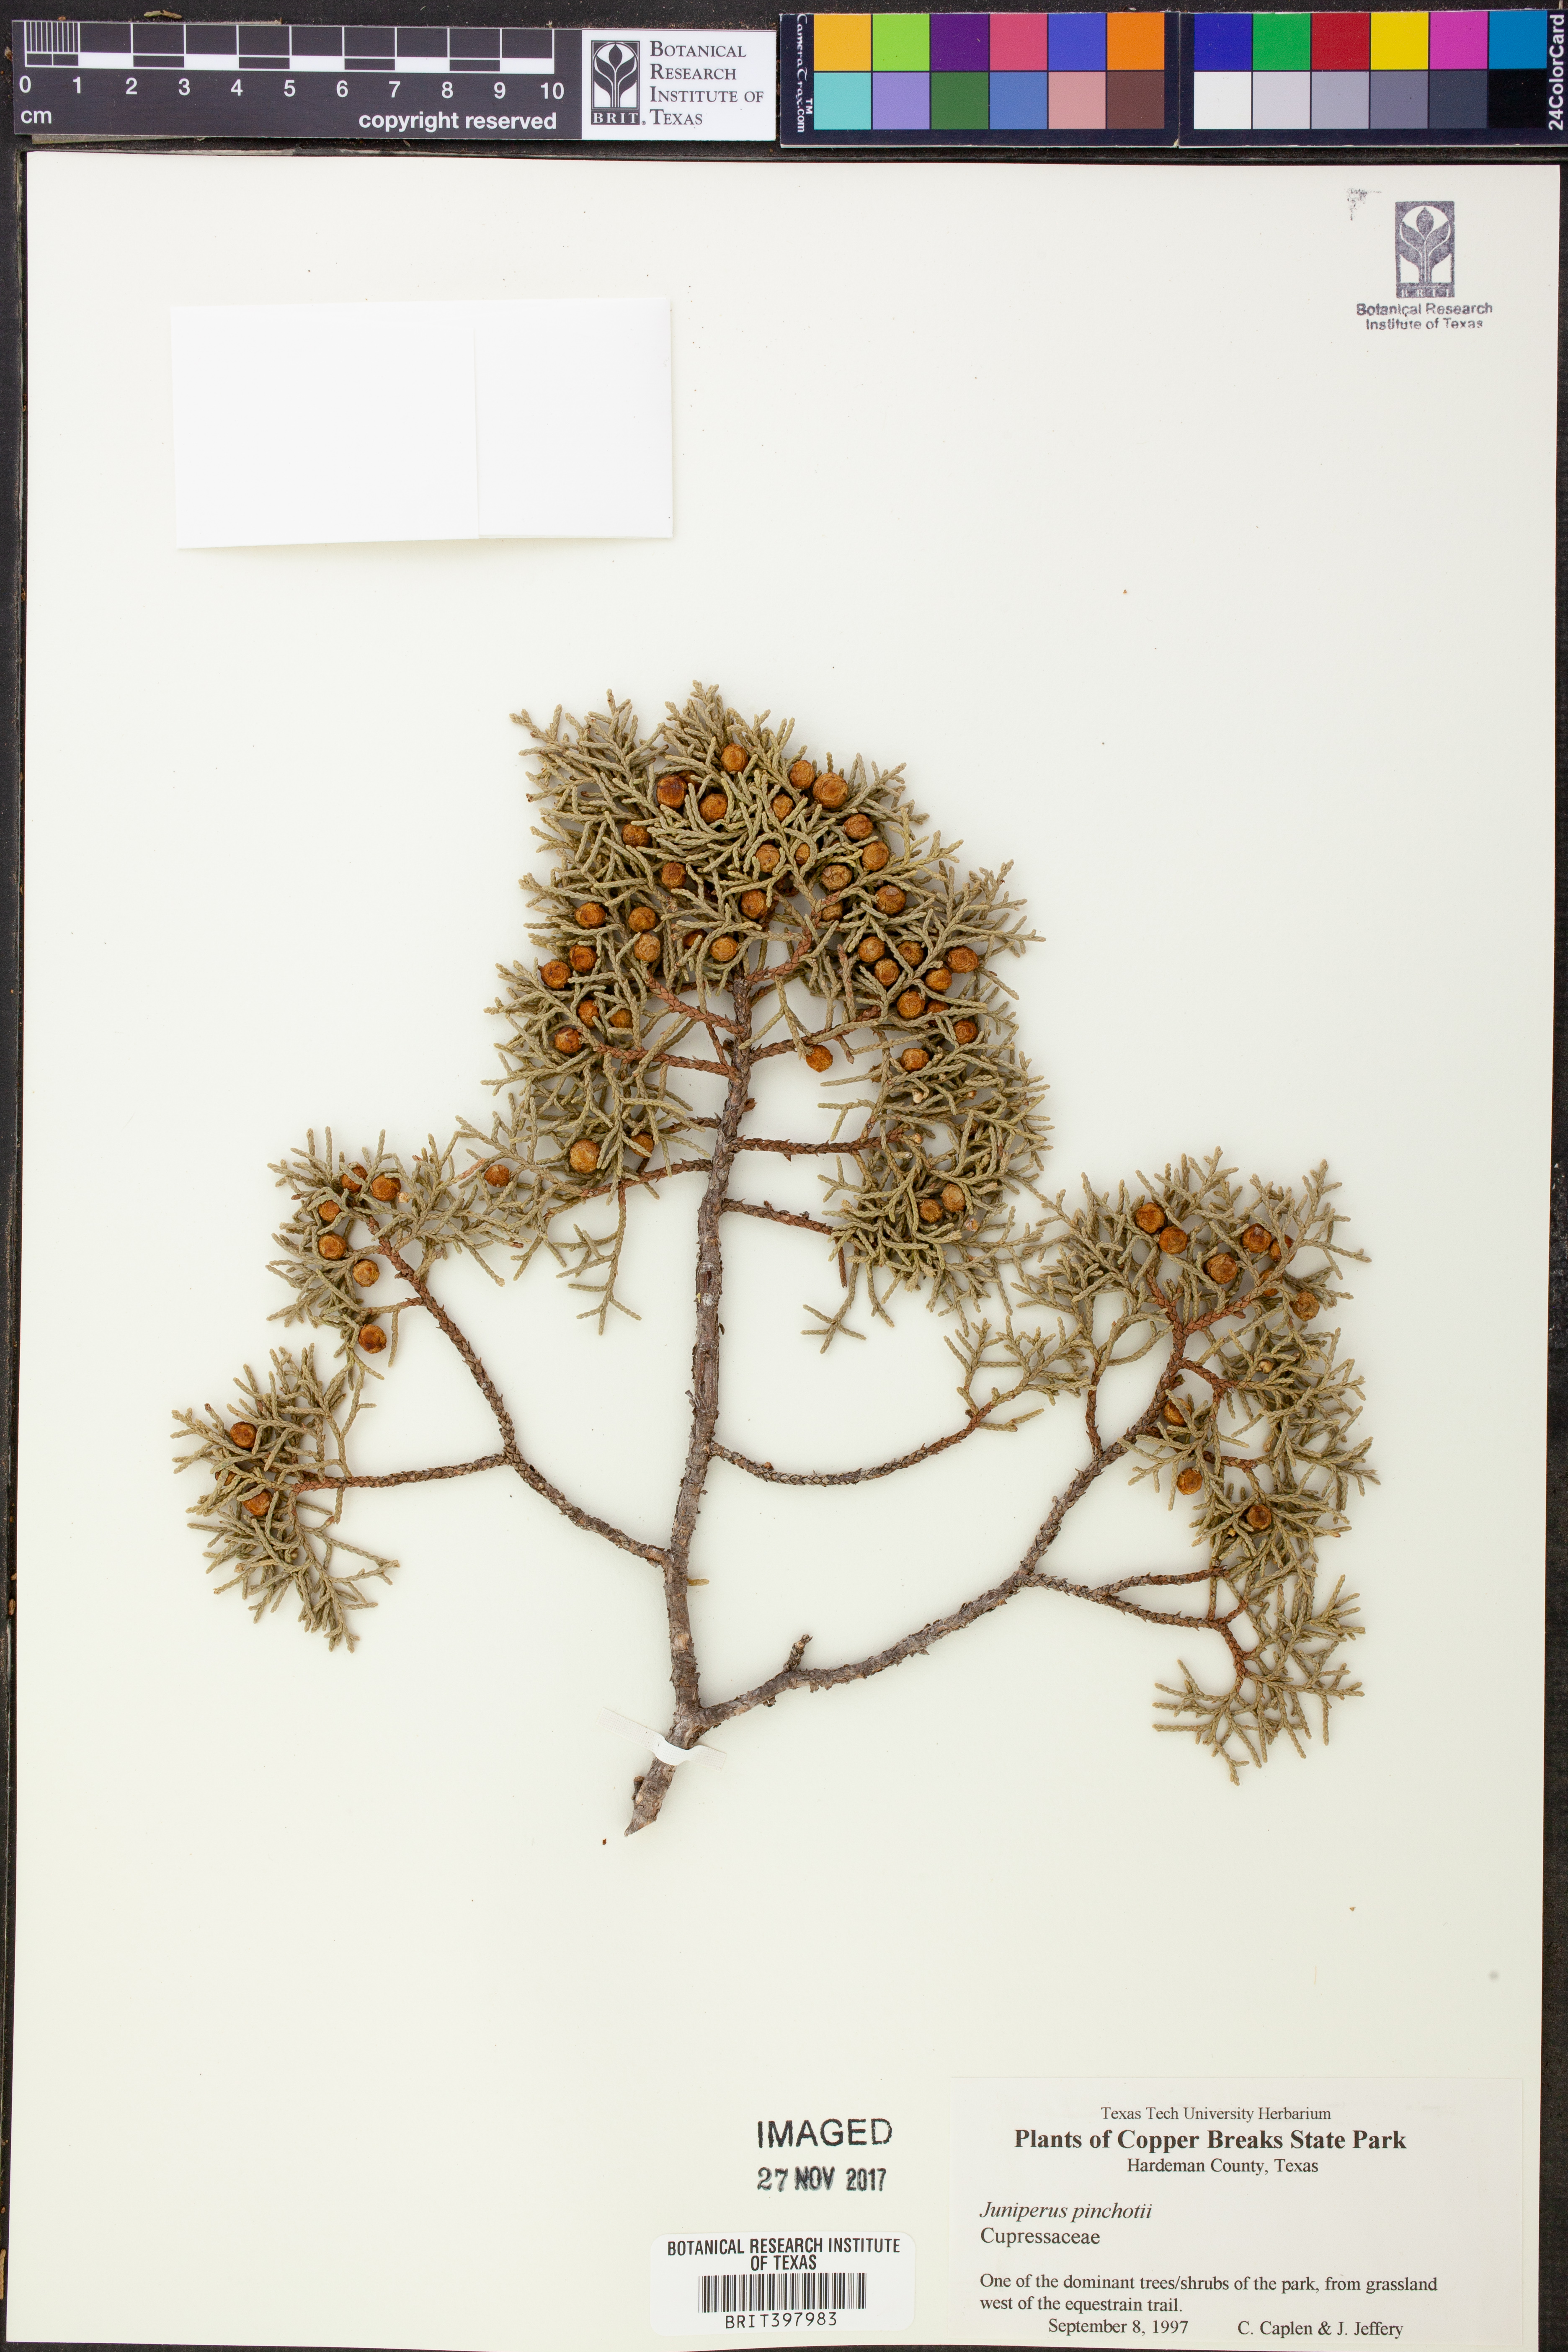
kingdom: Plantae
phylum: Tracheophyta
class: Pinopsida
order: Pinales
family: Cupressaceae
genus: Juniperus
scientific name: Juniperus pinchotii
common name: Pinchot juniper
